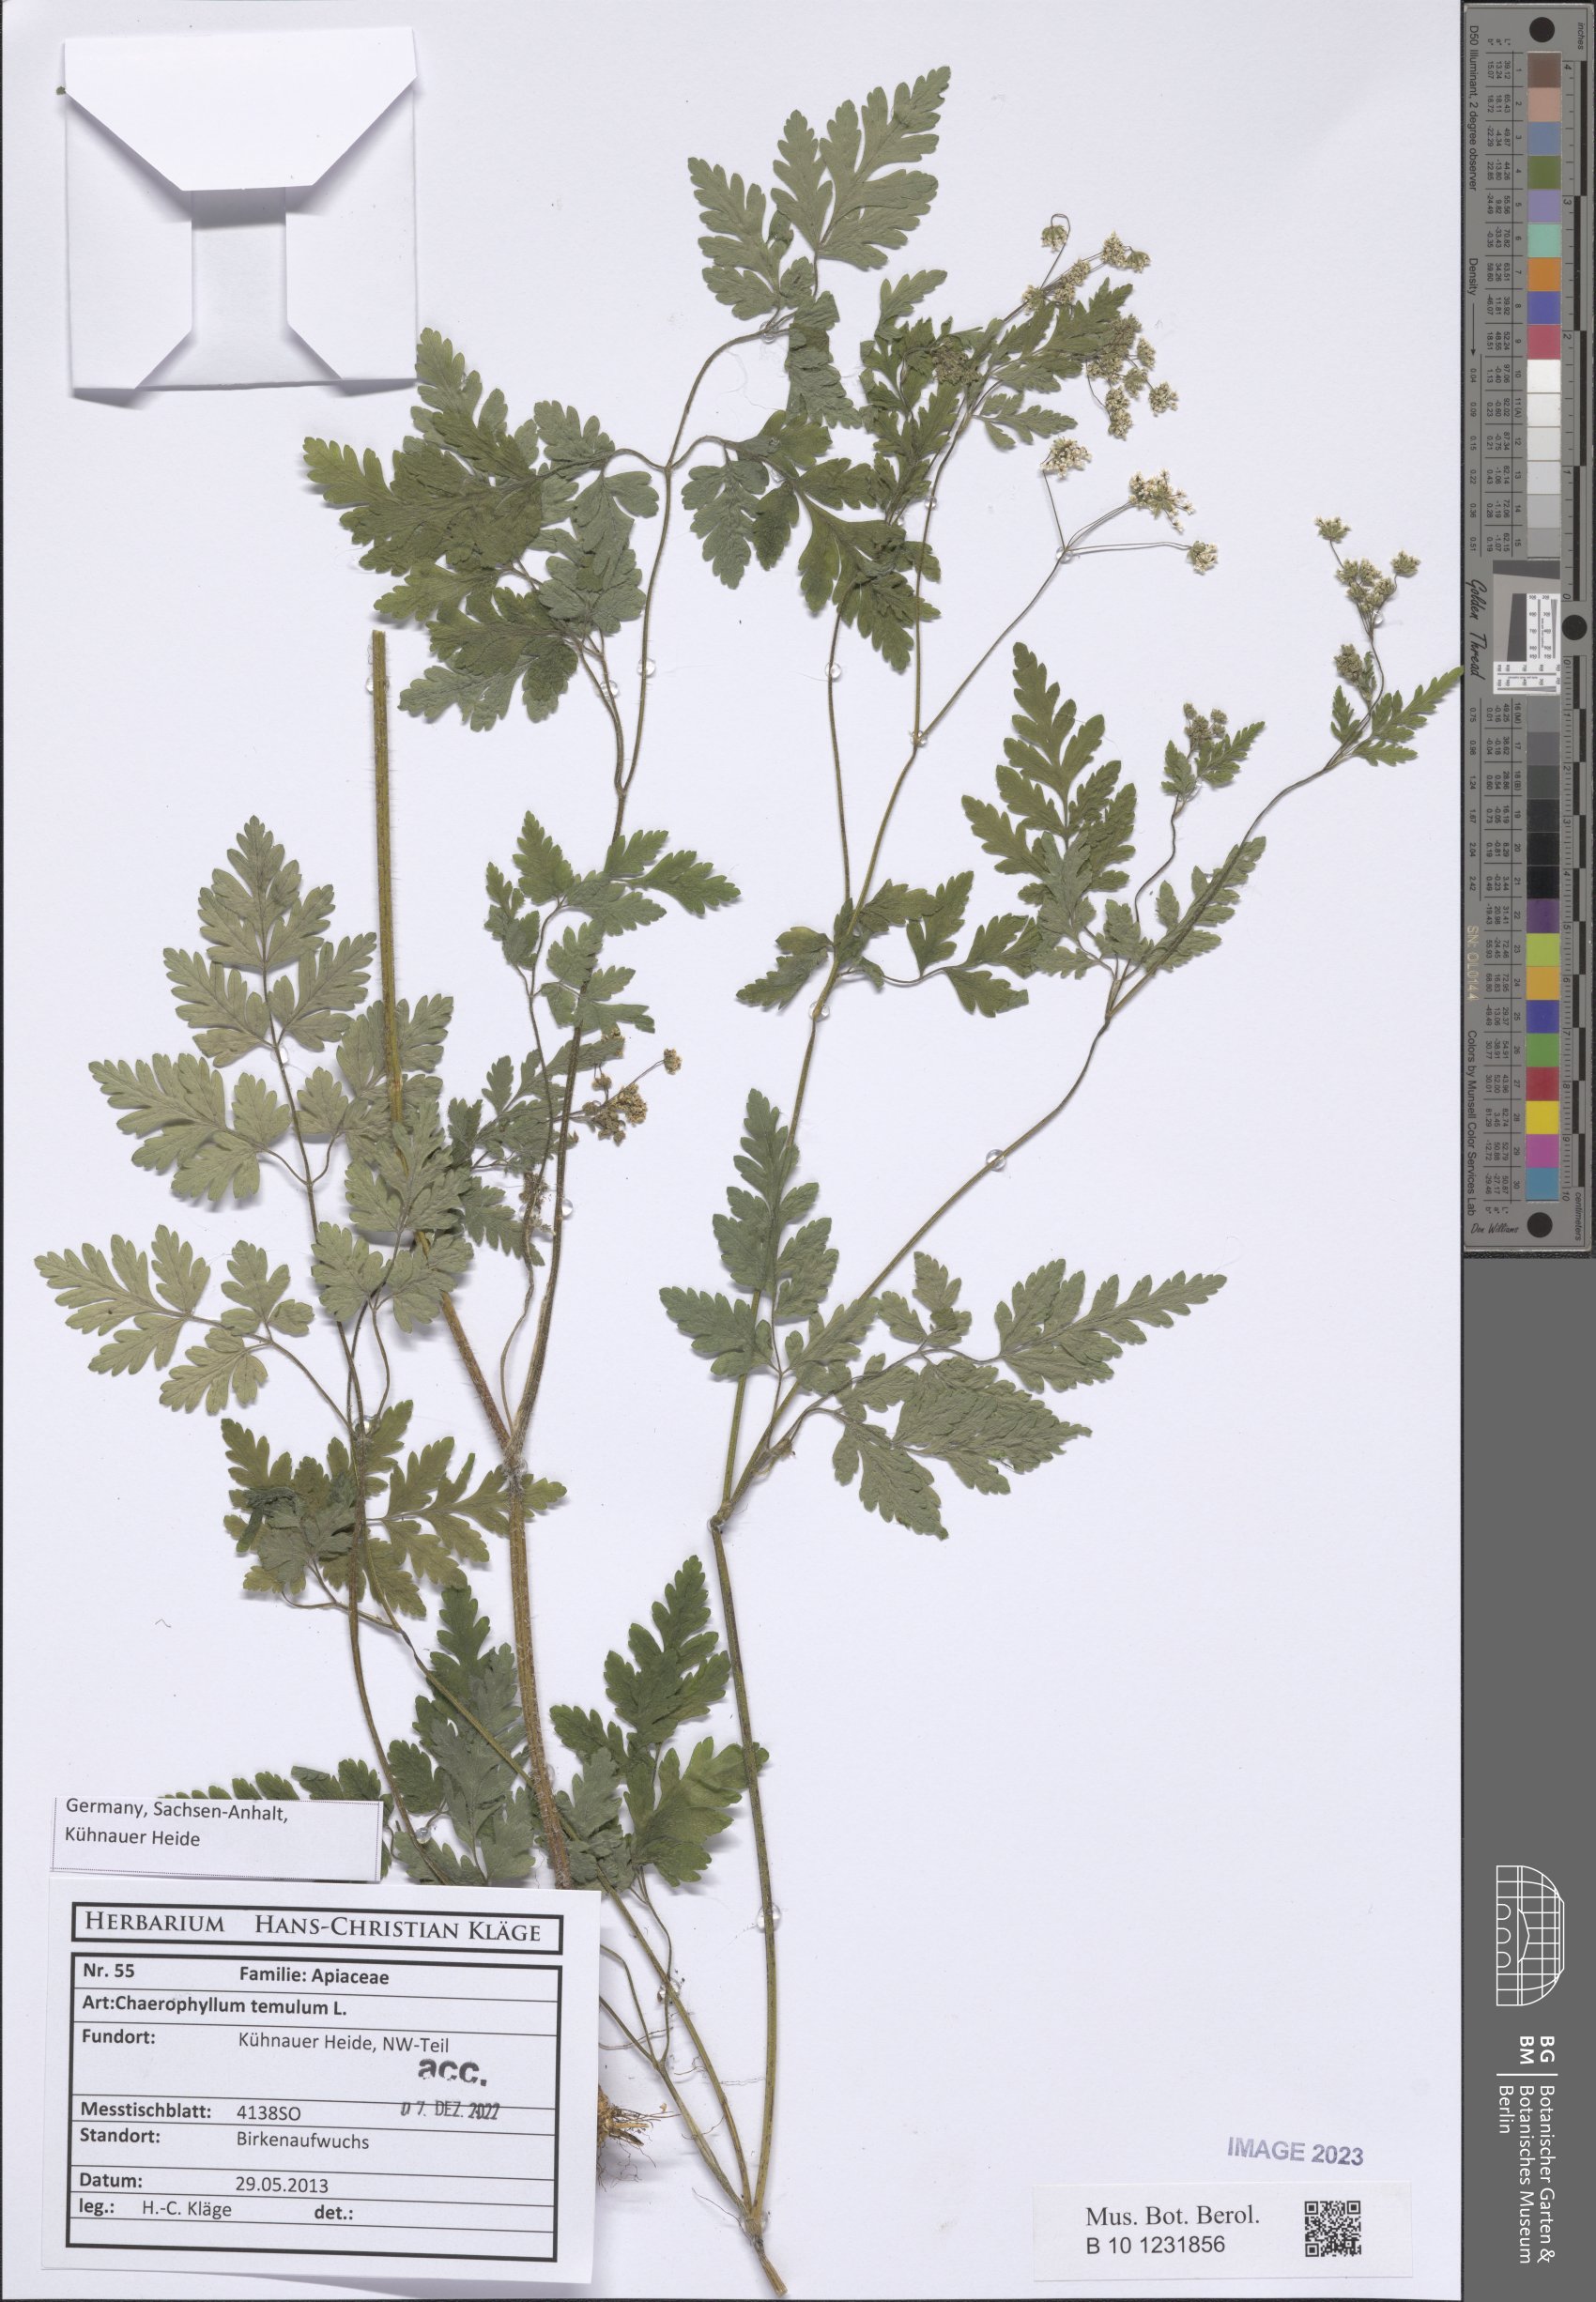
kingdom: Plantae
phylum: Tracheophyta
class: Magnoliopsida
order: Apiales
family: Apiaceae
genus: Chaerophyllum
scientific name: Chaerophyllum temulum
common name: Rough chervil
